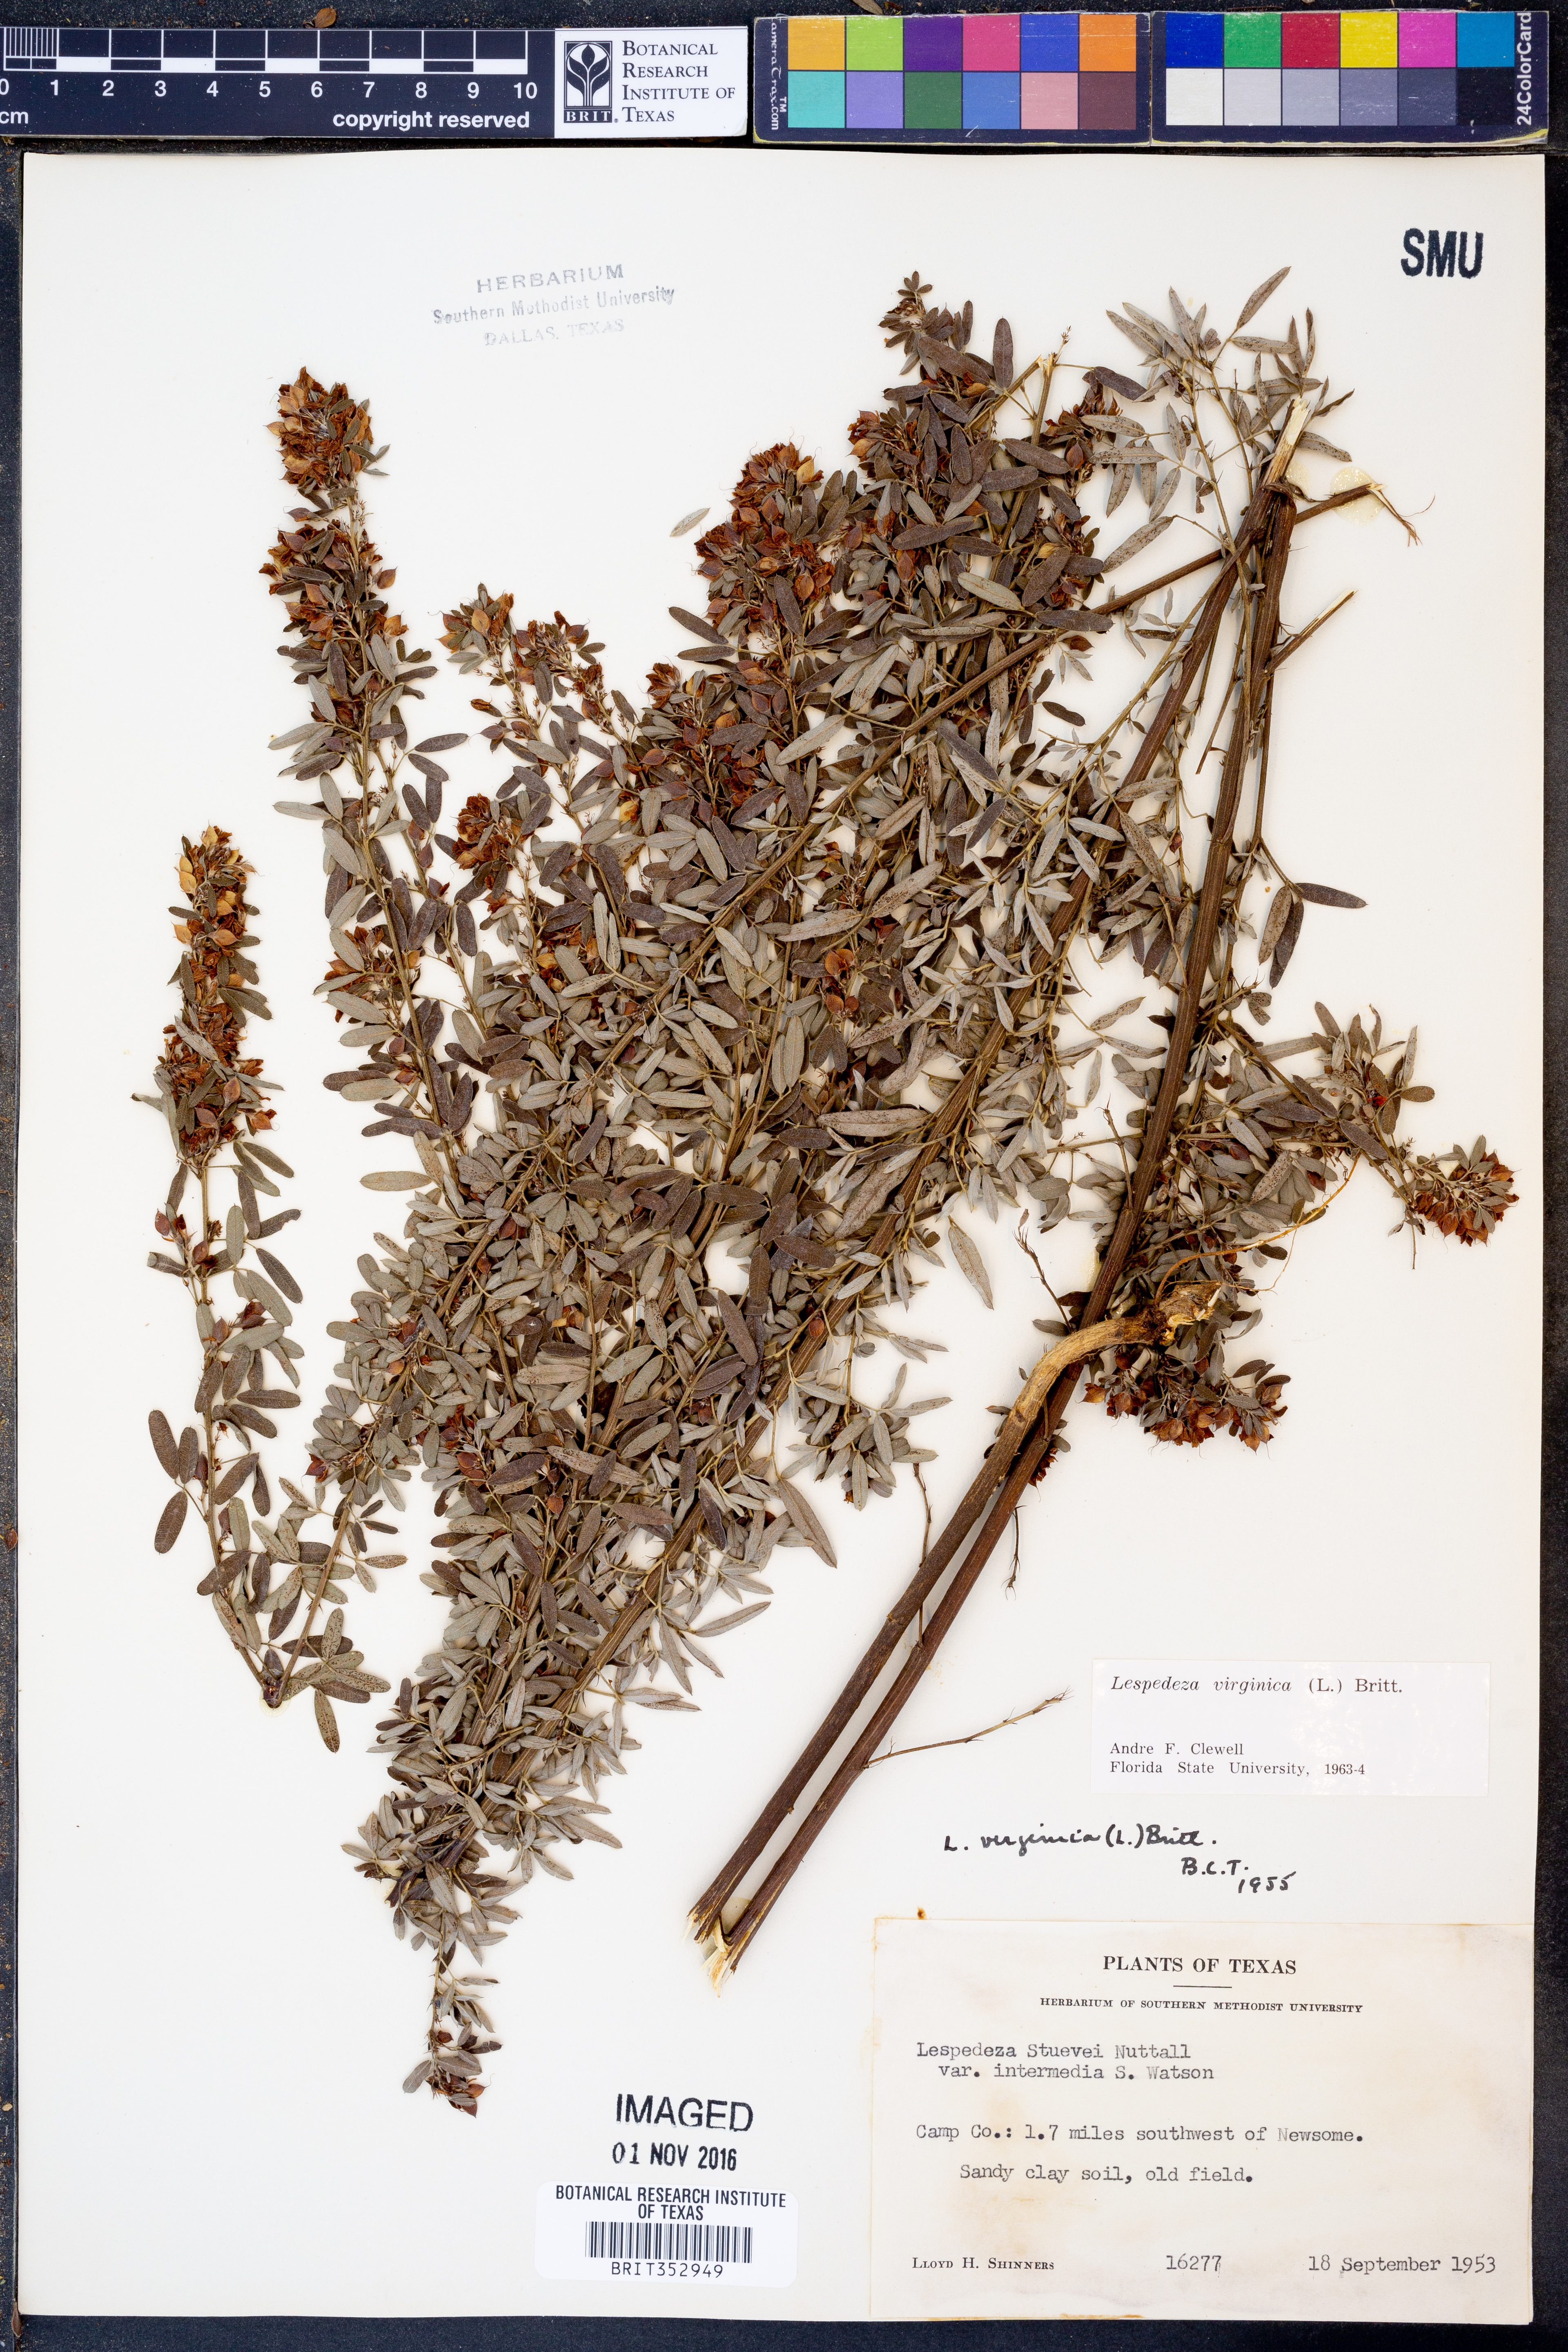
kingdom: Plantae
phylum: Tracheophyta
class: Magnoliopsida
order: Fabales
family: Fabaceae
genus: Lespedeza
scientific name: Lespedeza virginica
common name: Slender bush-clover
